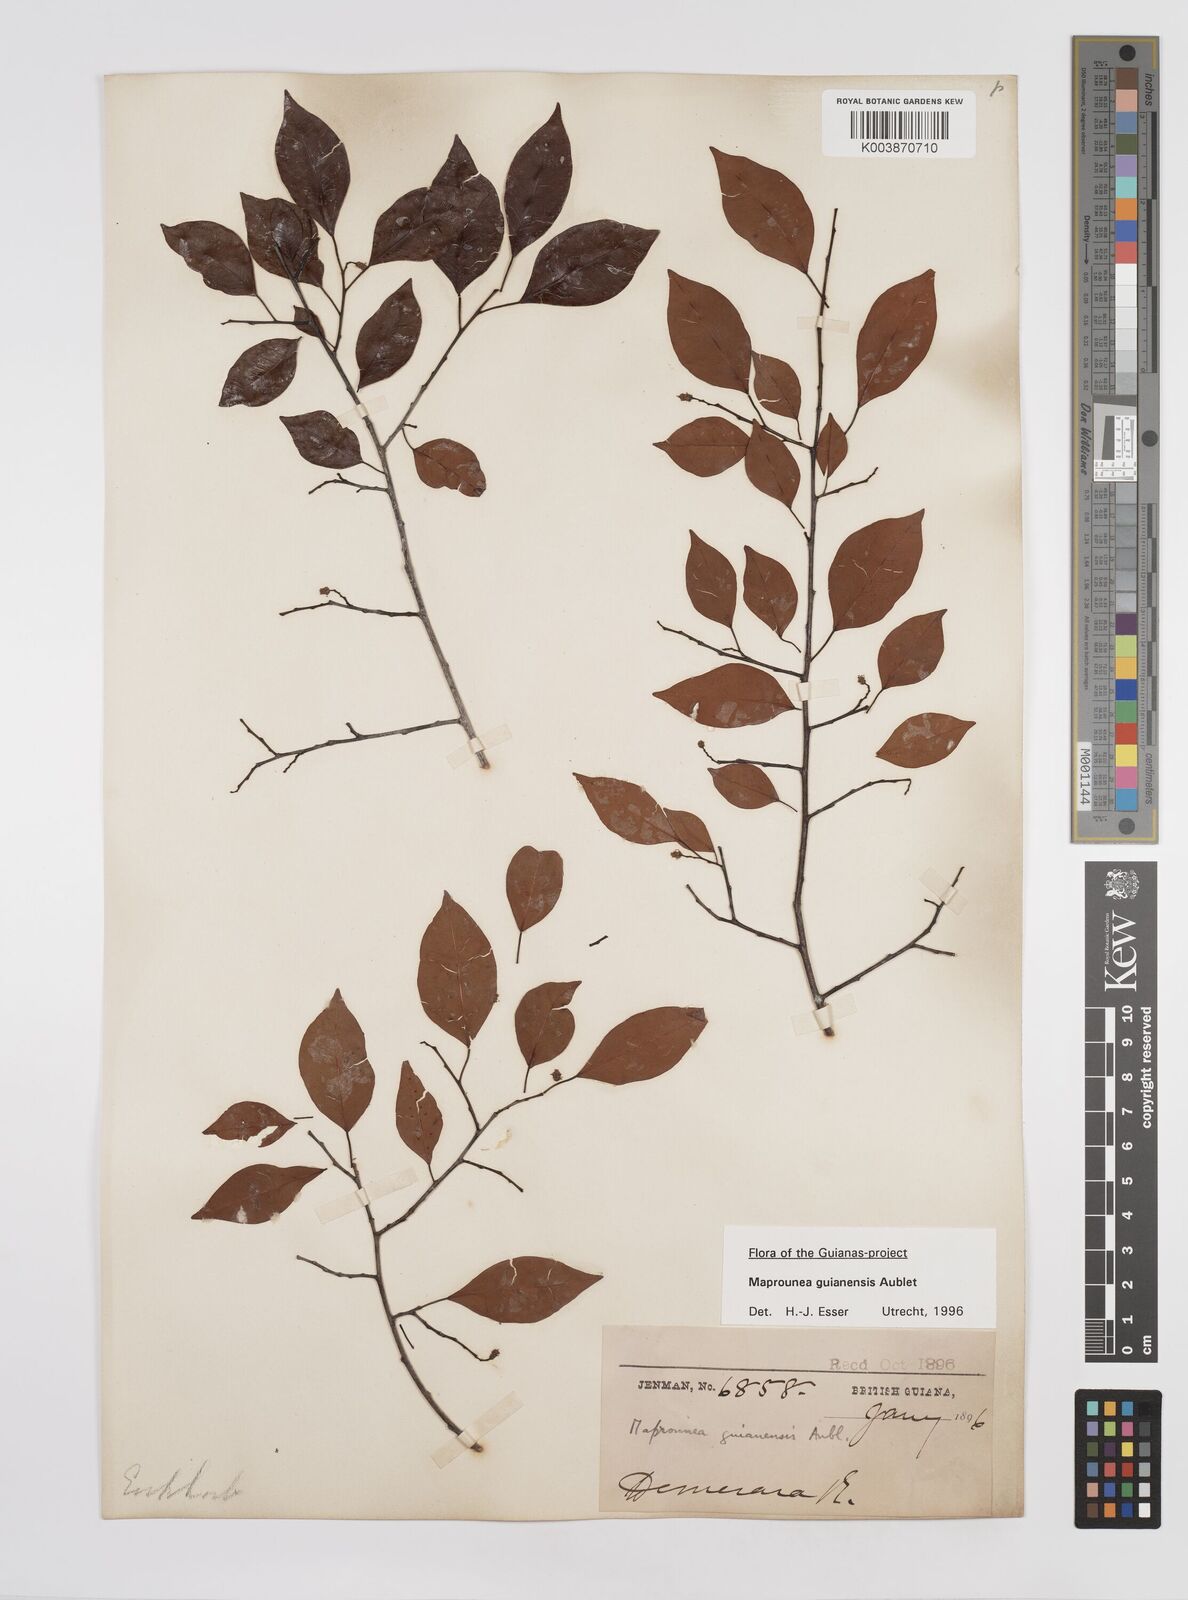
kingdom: Plantae
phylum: Tracheophyta
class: Magnoliopsida
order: Malpighiales
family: Euphorbiaceae
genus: Maprounea
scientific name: Maprounea guianensis
